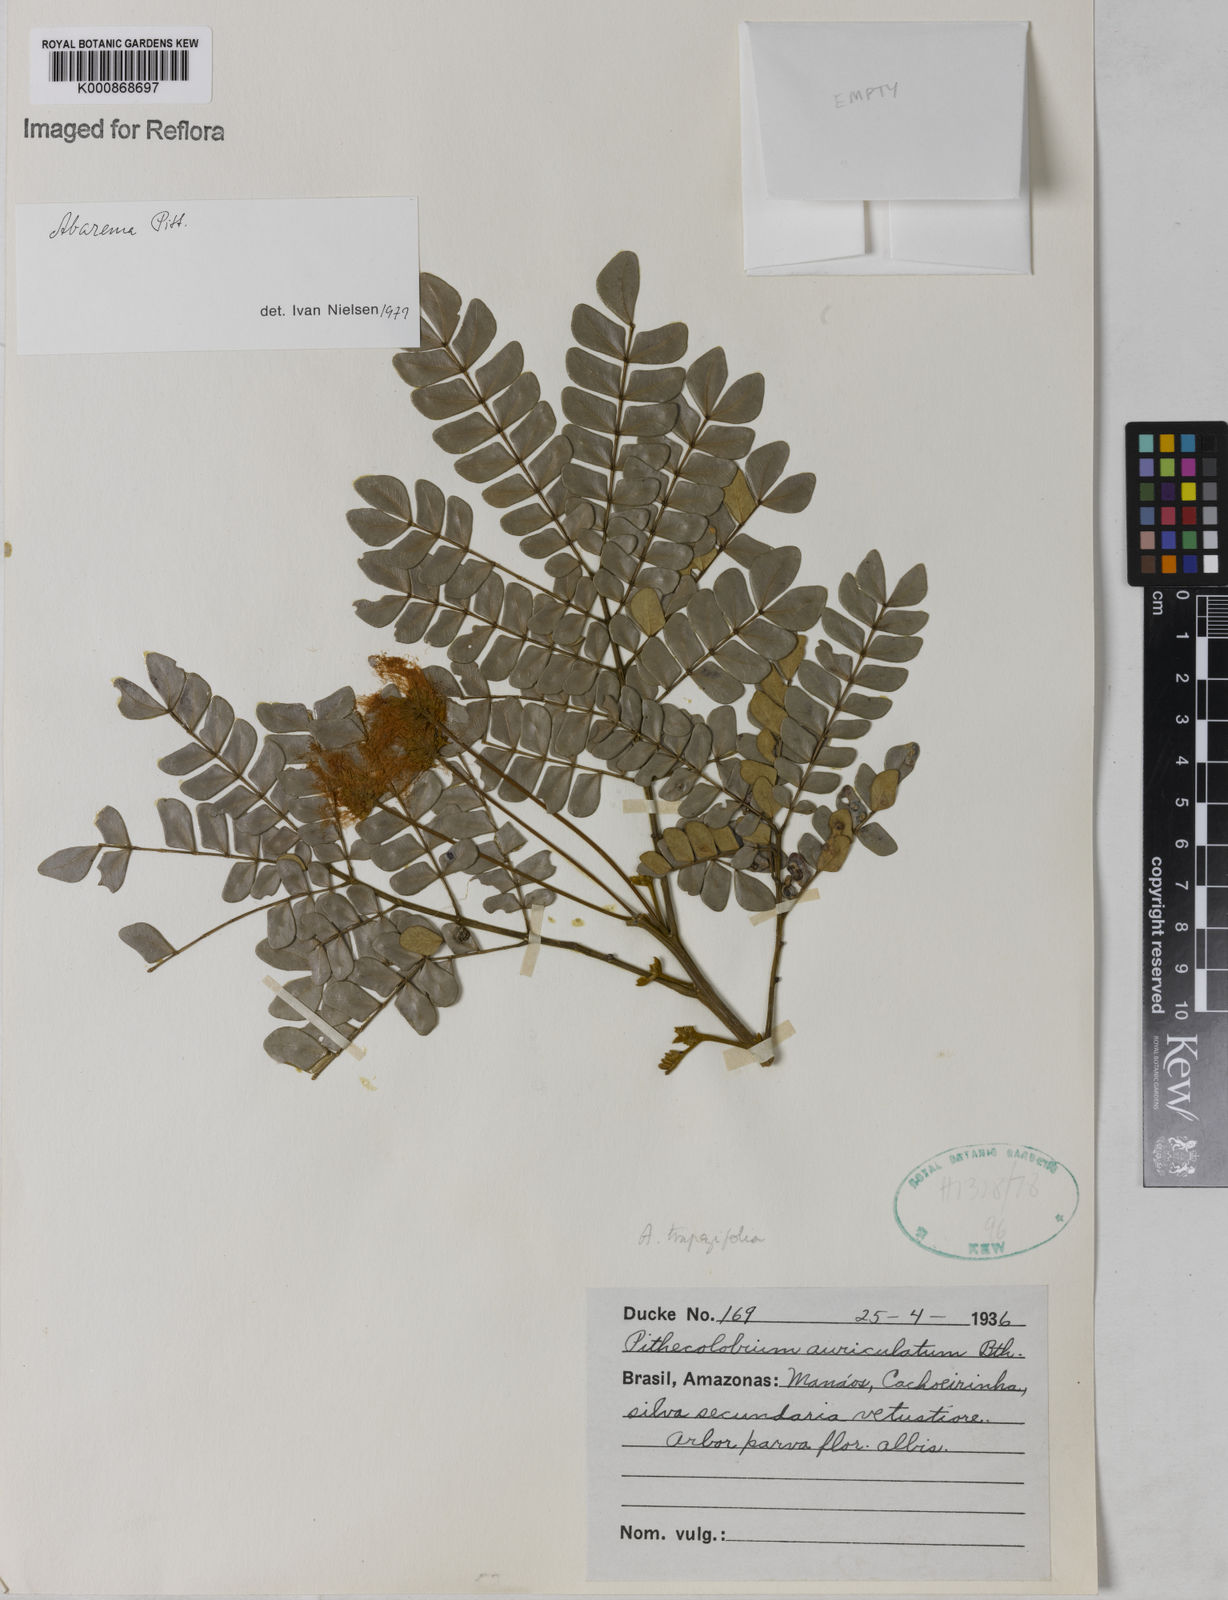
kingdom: Plantae
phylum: Tracheophyta
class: Magnoliopsida
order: Fabales
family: Fabaceae
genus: Abarema
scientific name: Abarema
